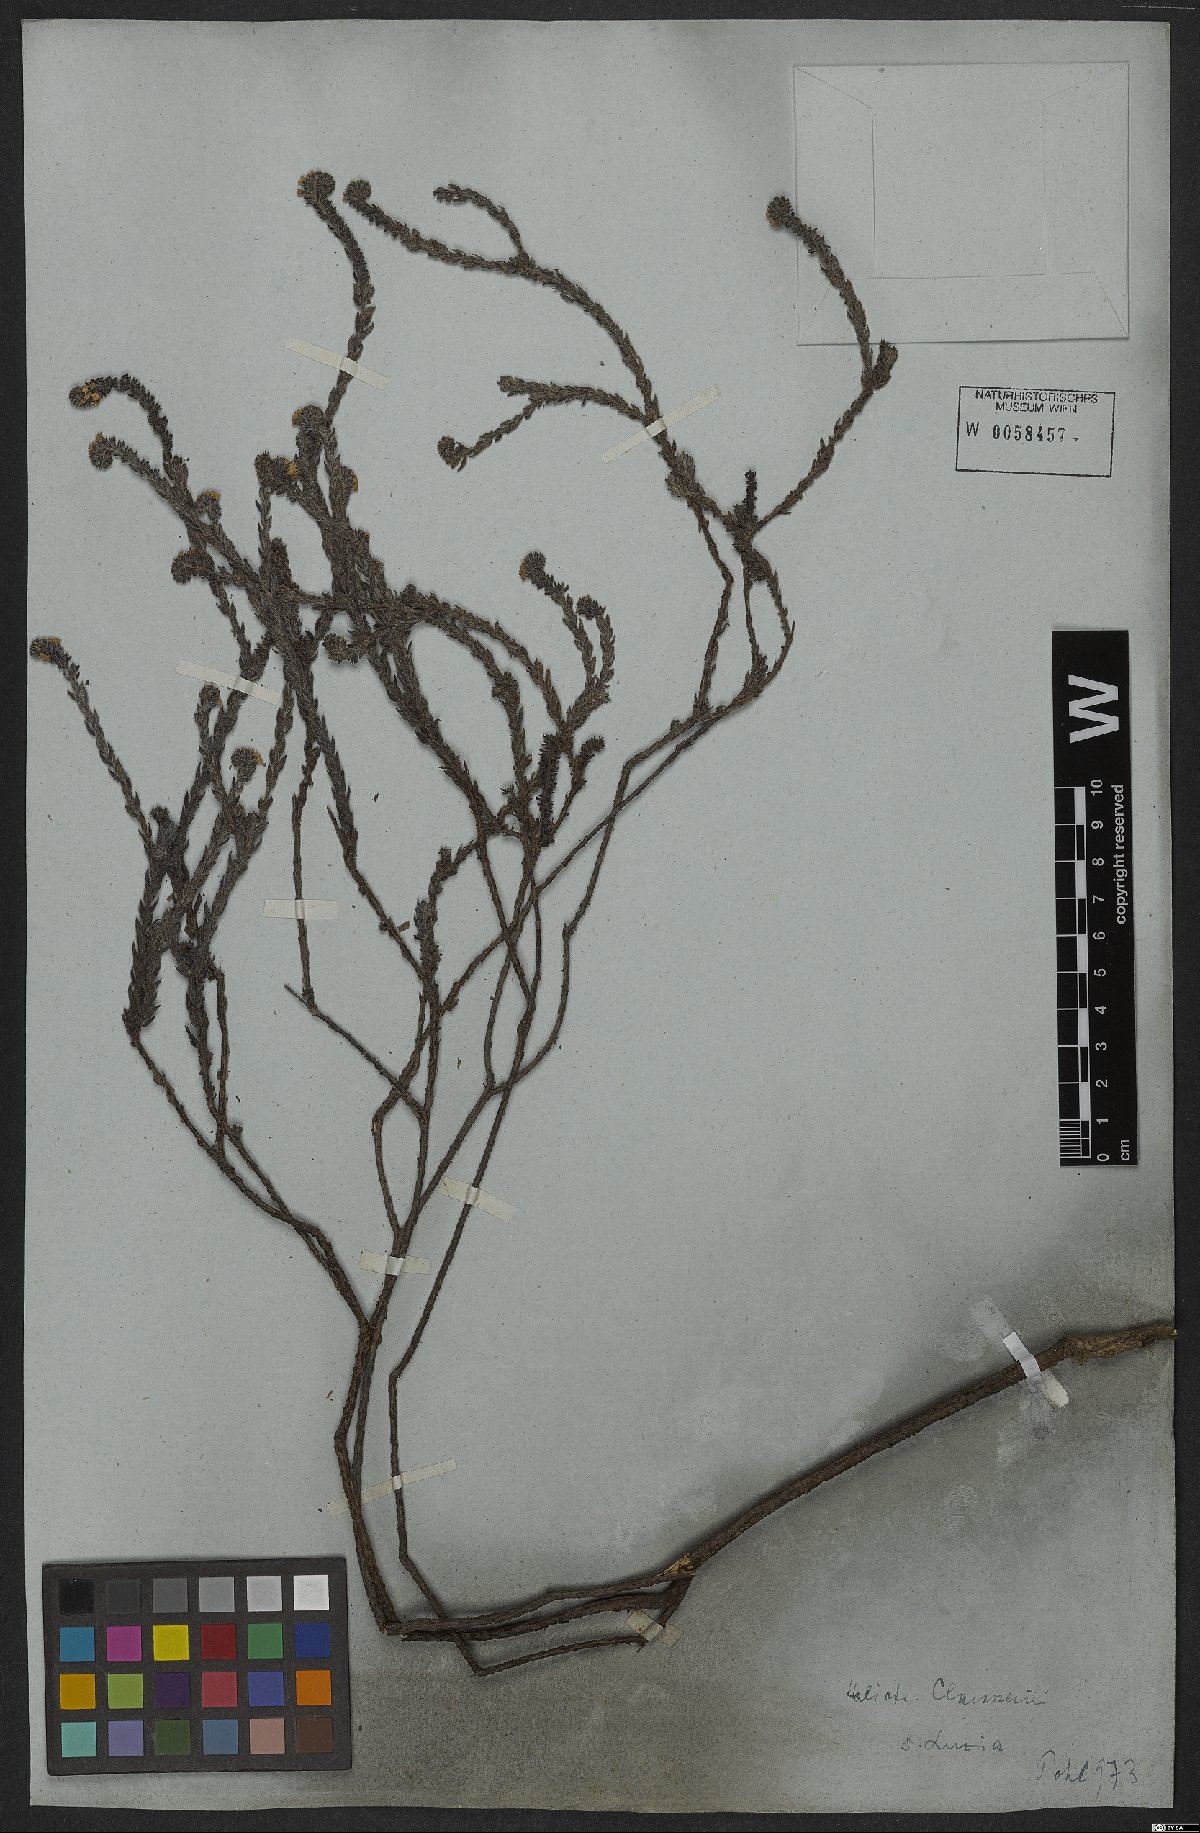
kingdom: Plantae
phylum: Tracheophyta
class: Magnoliopsida
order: Boraginales
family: Heliotropiaceae
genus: Euploca
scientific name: Euploca salicoides
